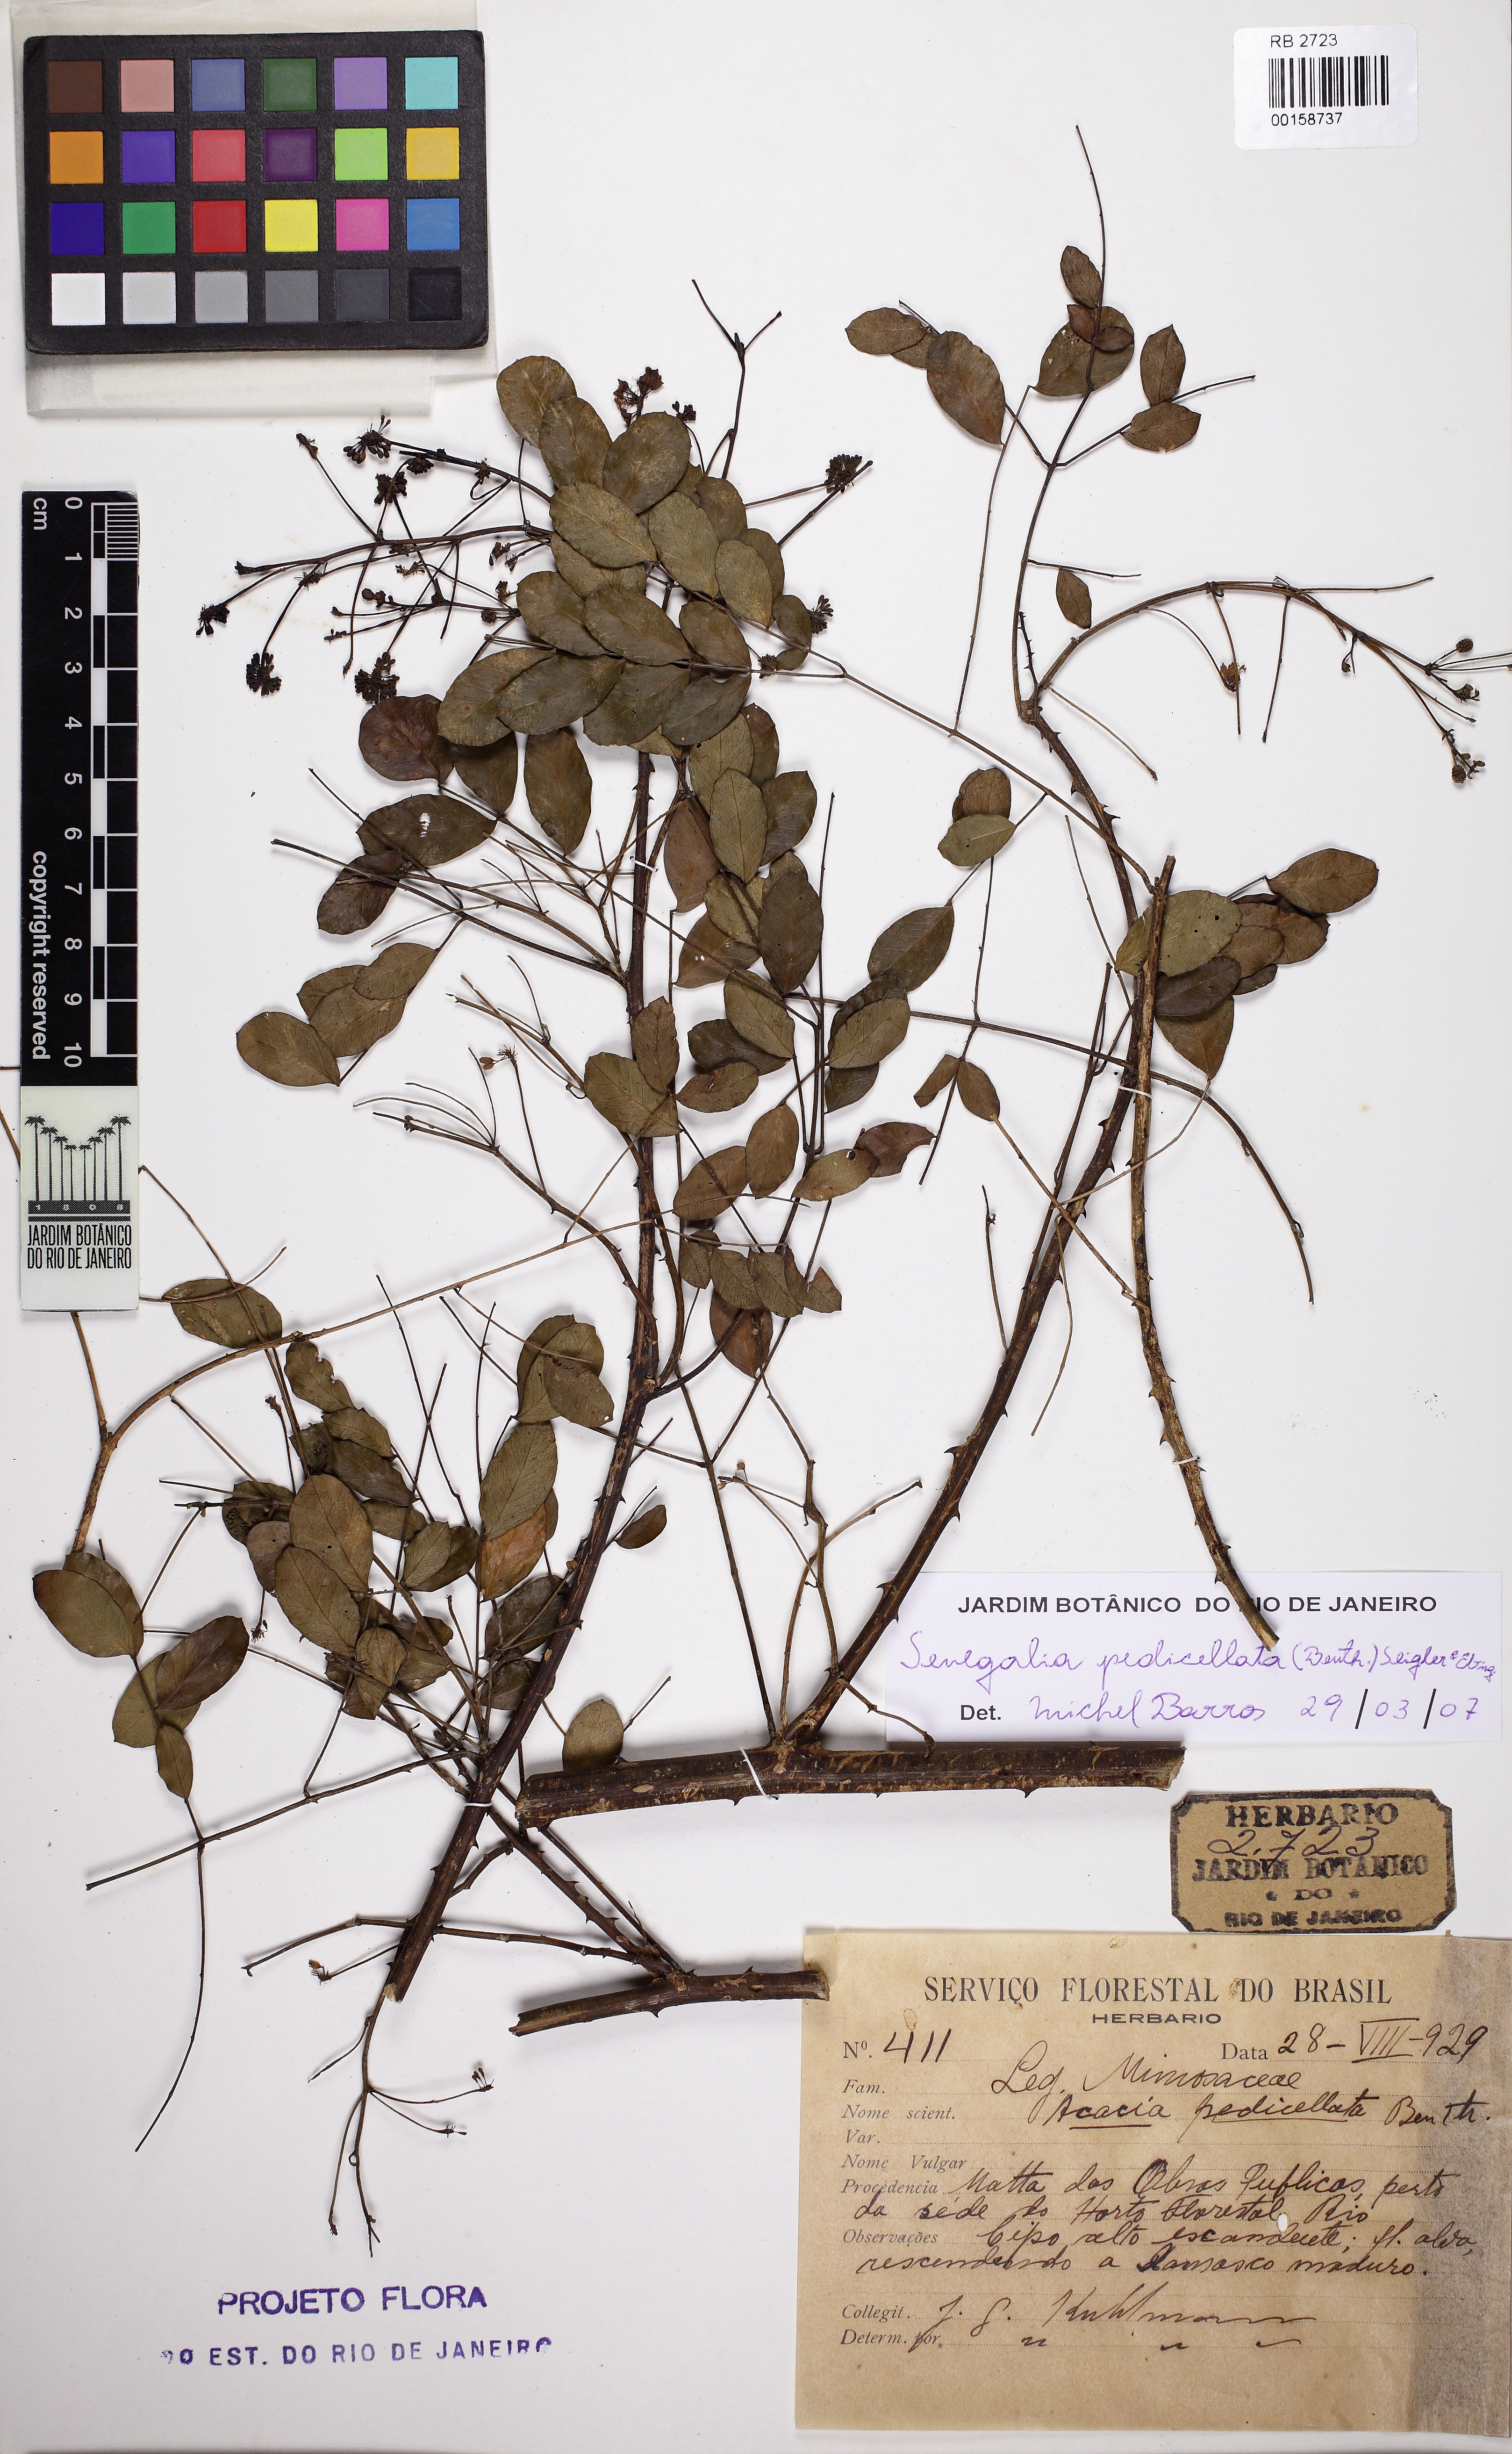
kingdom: Plantae
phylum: Tracheophyta
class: Magnoliopsida
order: Fabales
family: Fabaceae
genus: Senegalia
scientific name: Senegalia pedicellata
